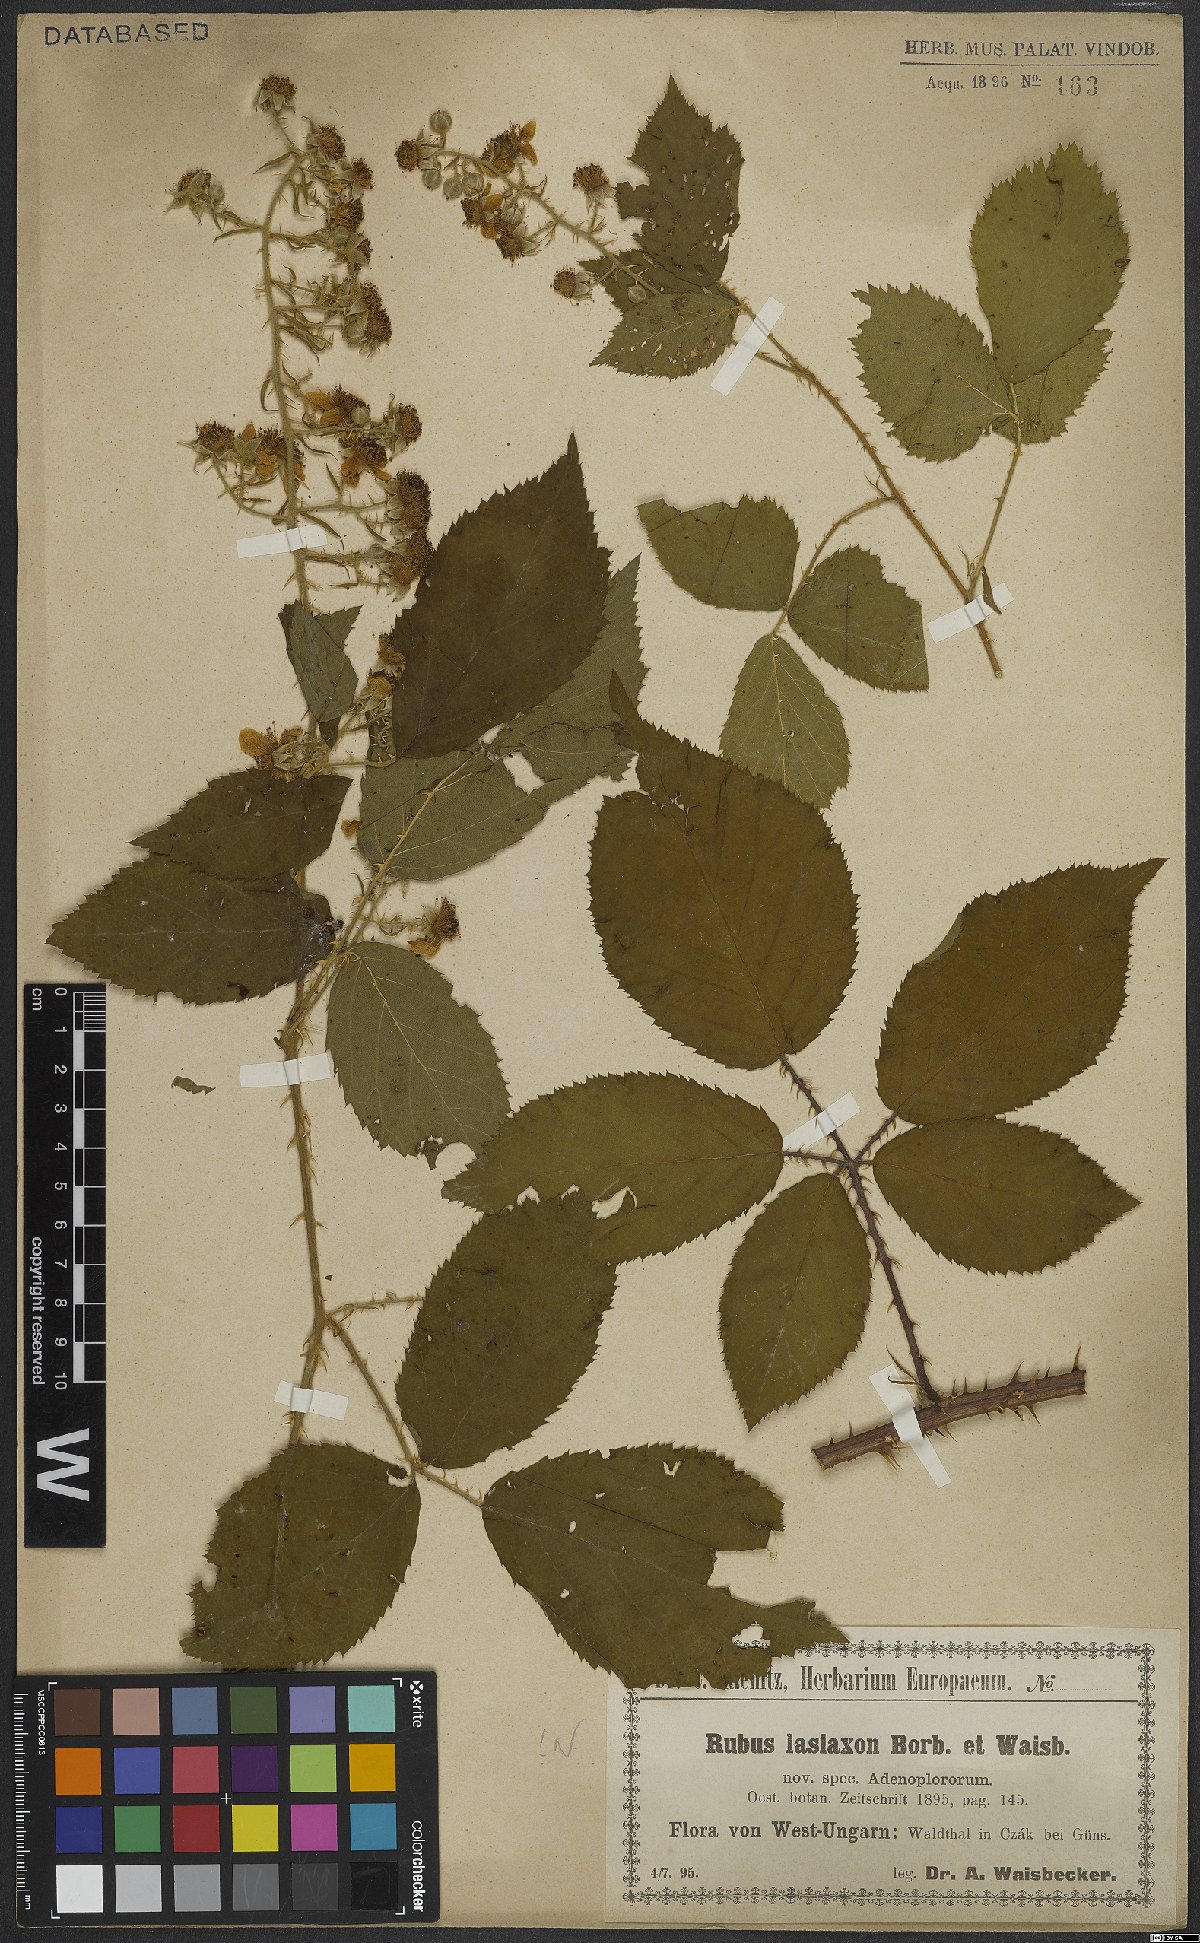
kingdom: Plantae
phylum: Tracheophyta
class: Magnoliopsida
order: Rosales
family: Rosaceae
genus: Rubus
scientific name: Rubus ferox
